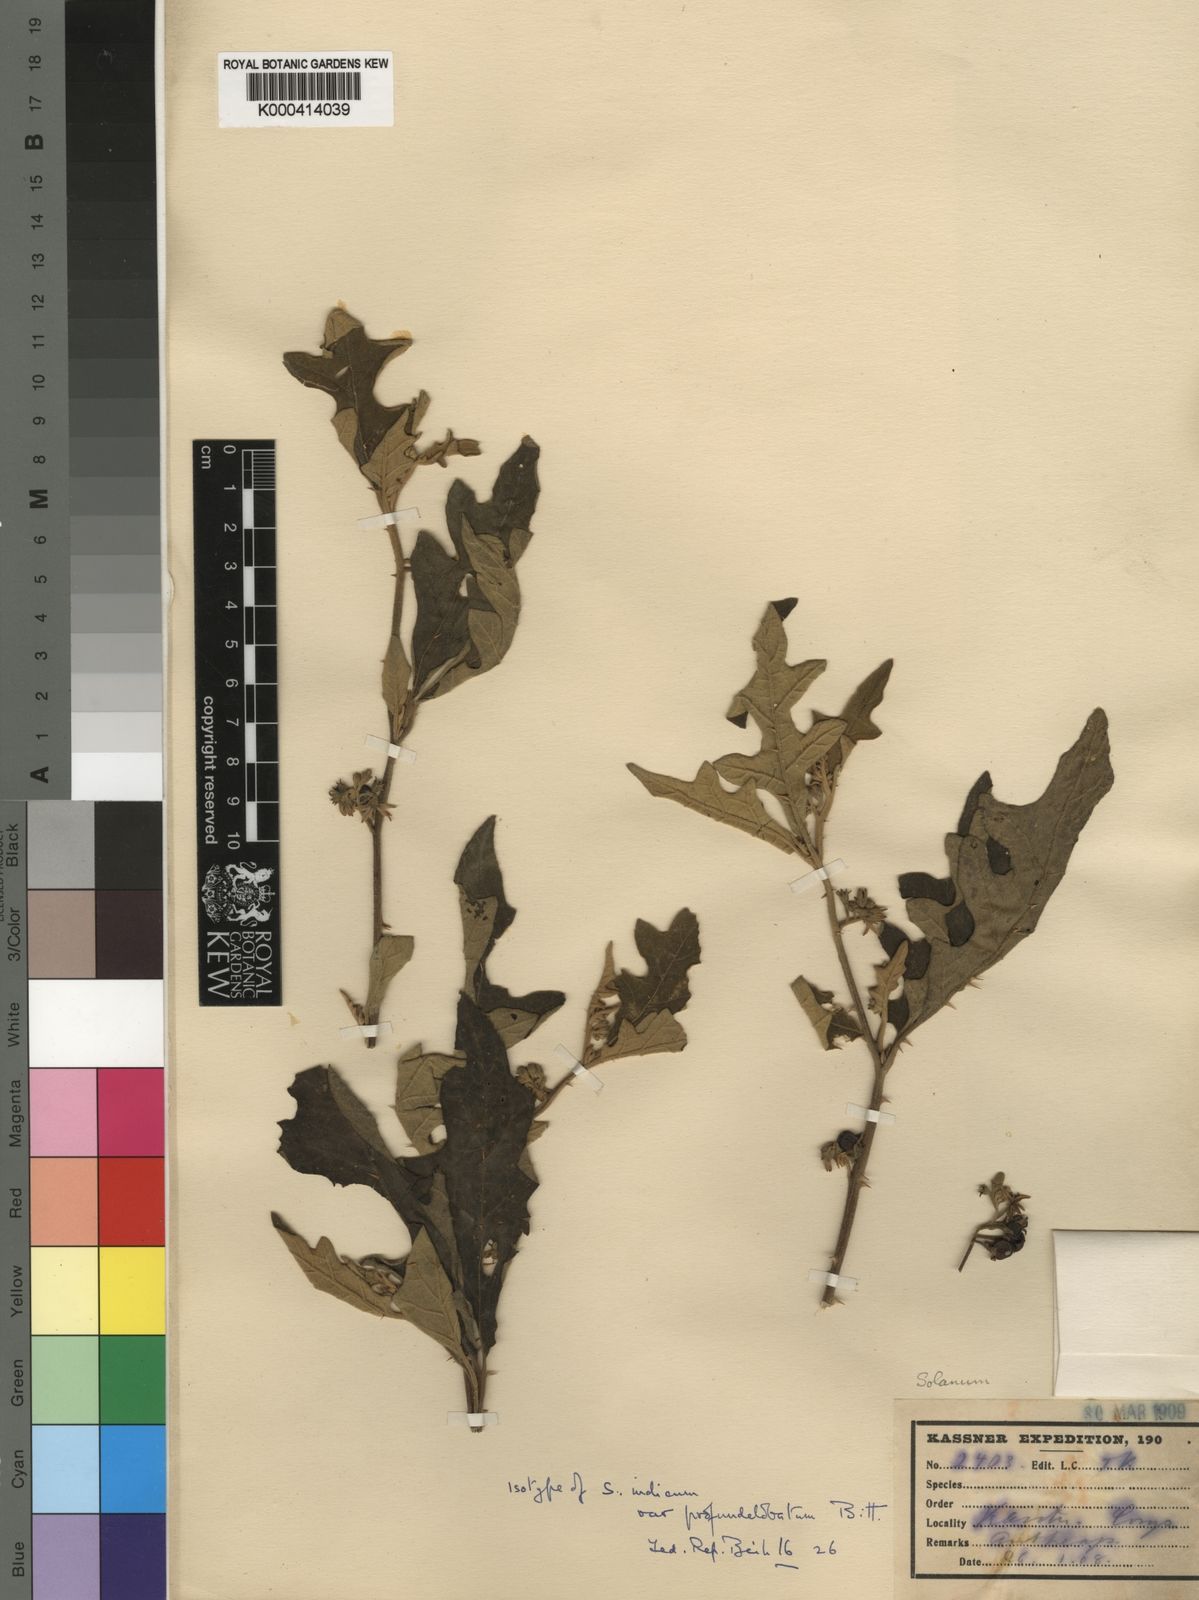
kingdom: Plantae
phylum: Tracheophyta
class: Magnoliopsida
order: Solanales
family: Solanaceae
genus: Solanum
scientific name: Solanum violaceum
